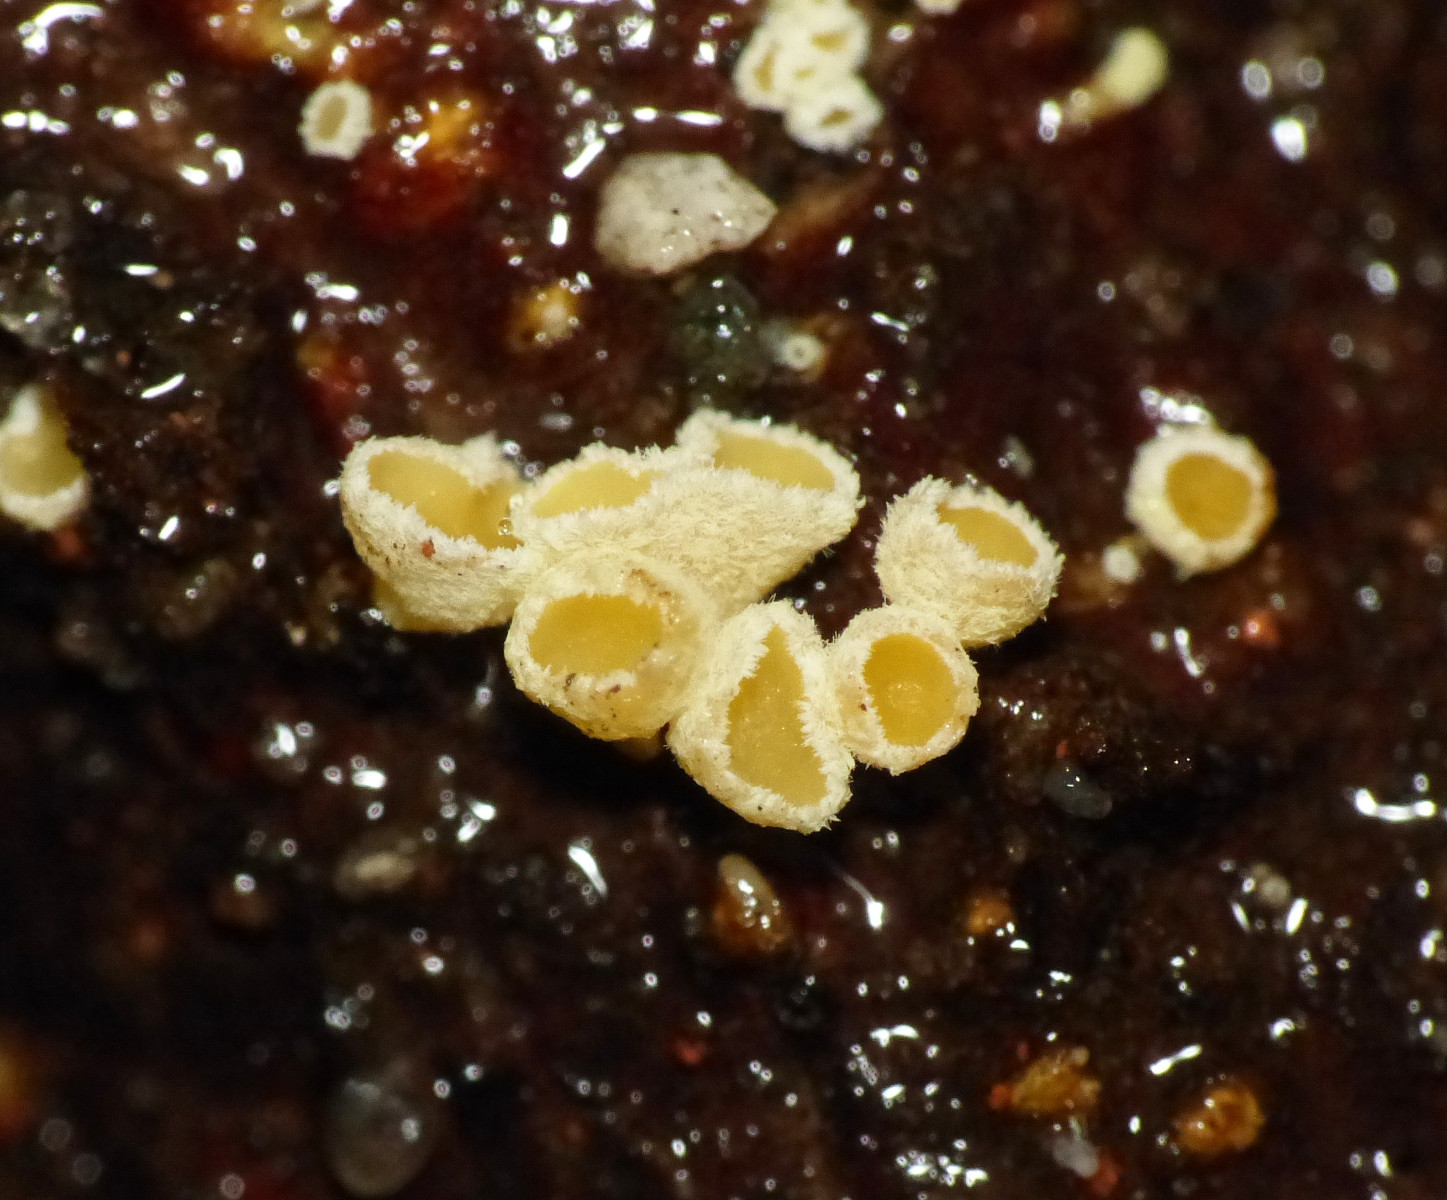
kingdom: Fungi
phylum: Ascomycota
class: Leotiomycetes
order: Helotiales
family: Lachnaceae
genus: Lachnellula
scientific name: Lachnellula
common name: frynseskive
